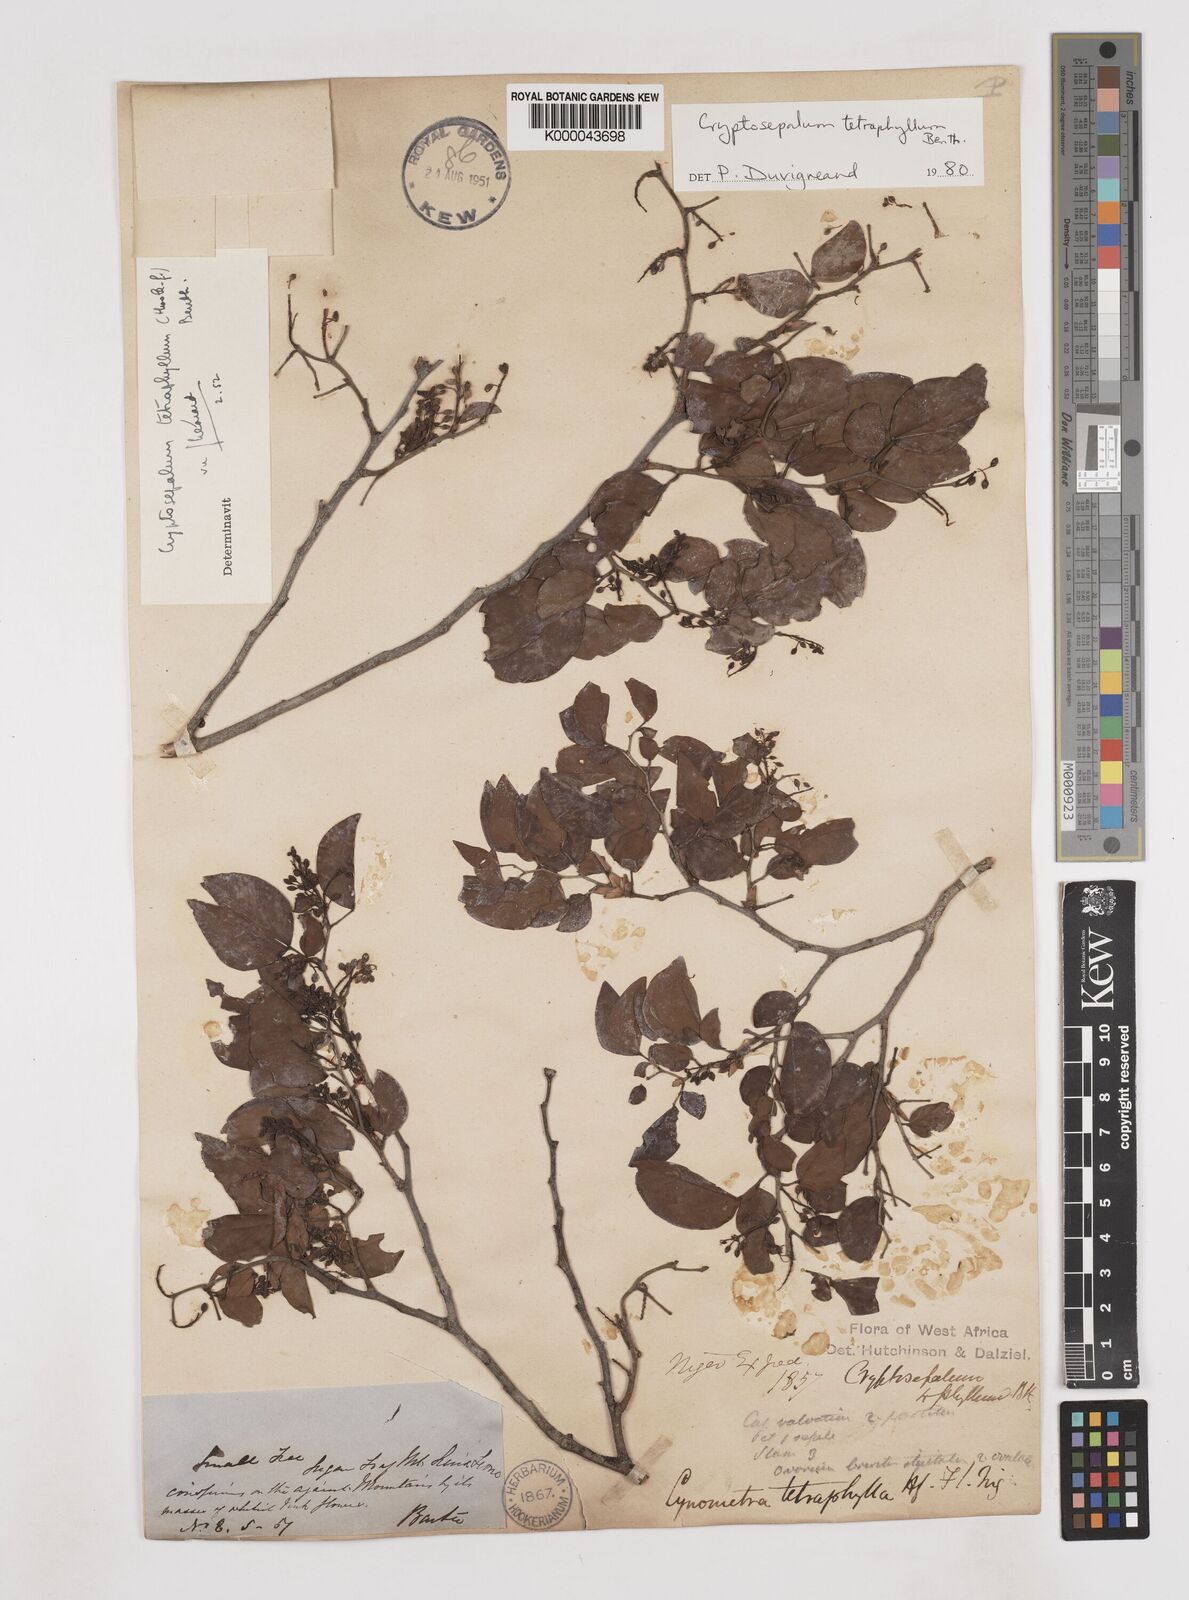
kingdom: Plantae
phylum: Tracheophyta
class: Magnoliopsida
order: Fabales
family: Fabaceae
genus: Cryptosepalum
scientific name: Cryptosepalum tetraphyllum
